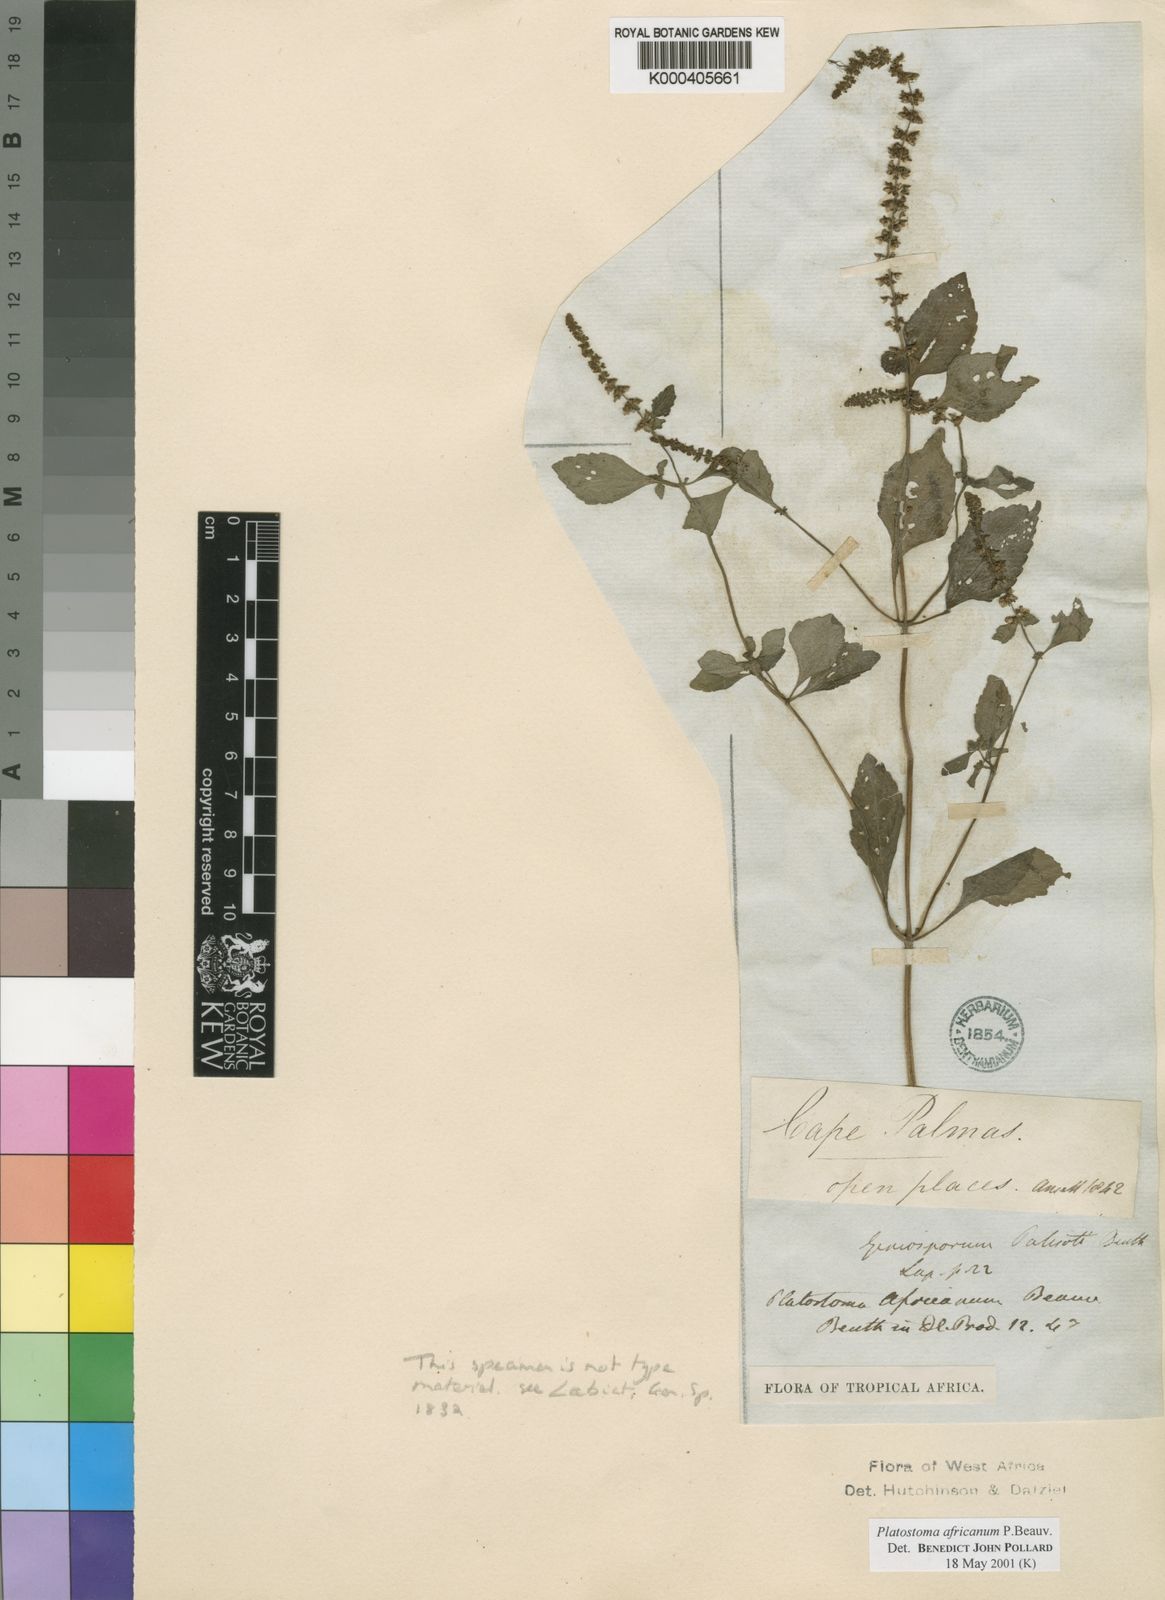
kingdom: Plantae
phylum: Tracheophyta
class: Magnoliopsida
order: Lamiales
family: Lamiaceae
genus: Platostoma
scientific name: Platostoma africanum
